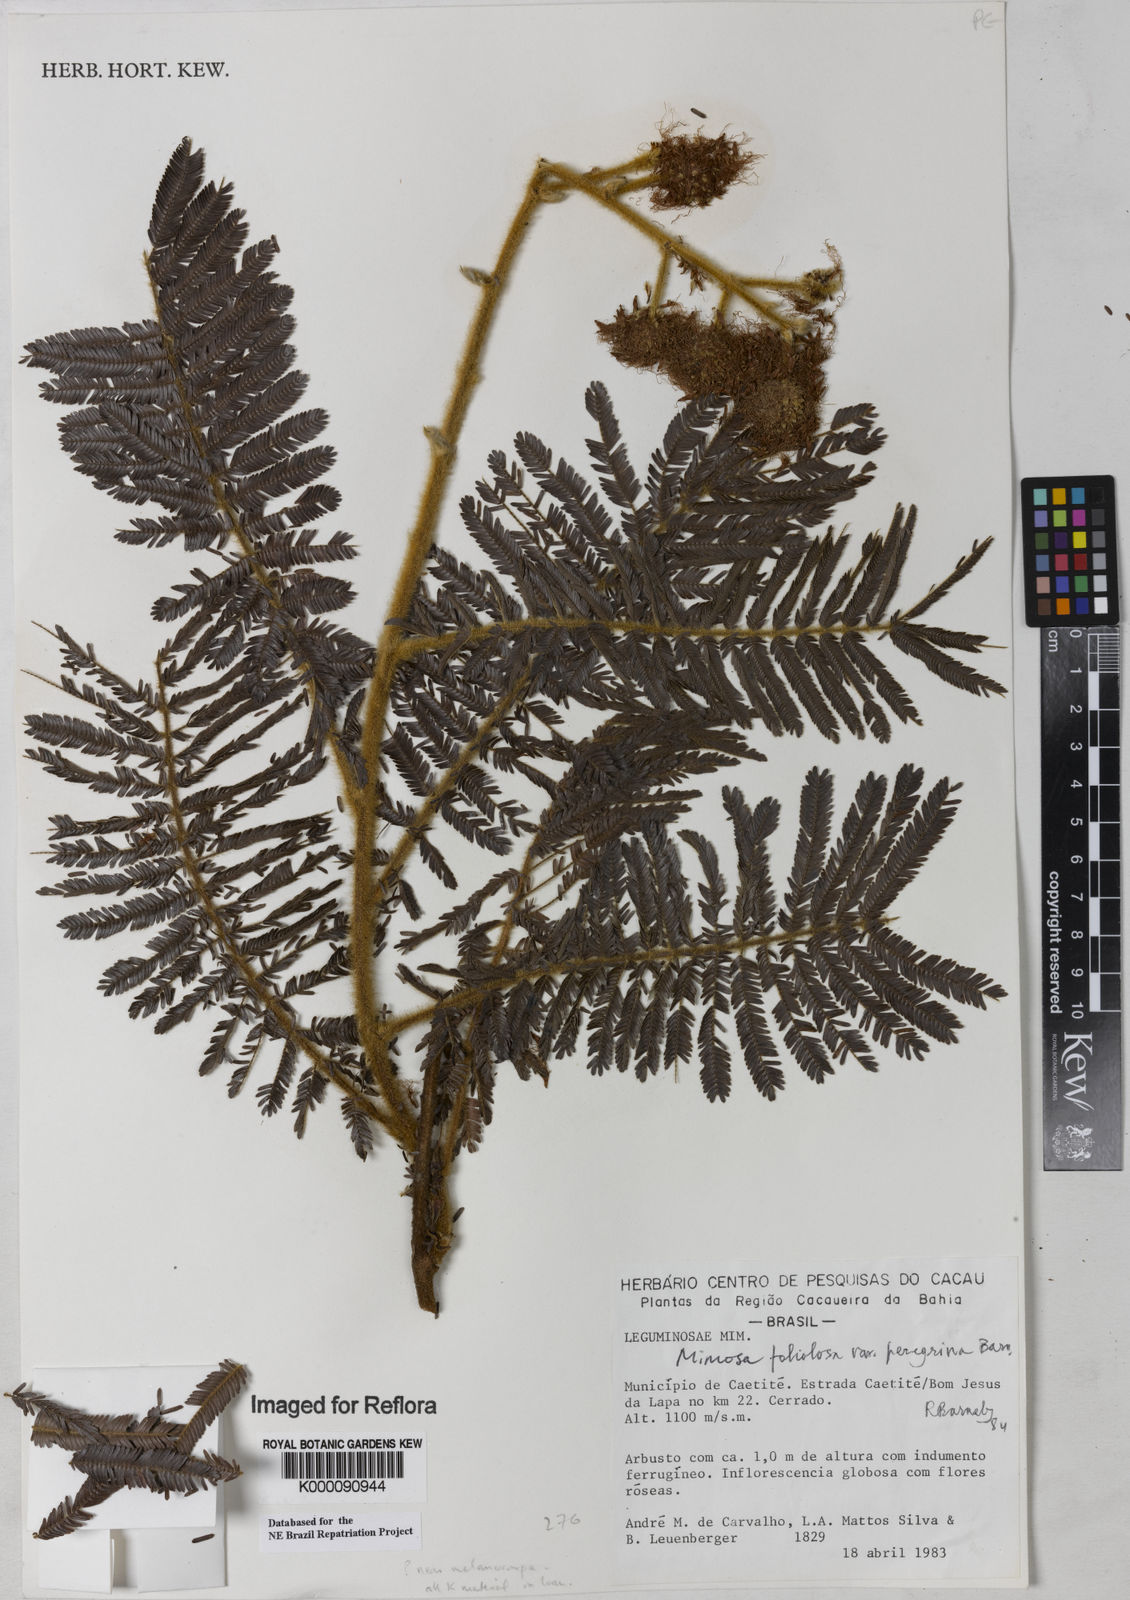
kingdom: Plantae
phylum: Tracheophyta
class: Magnoliopsida
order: Fabales
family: Fabaceae
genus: Mimosa
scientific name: Mimosa foliolosa
